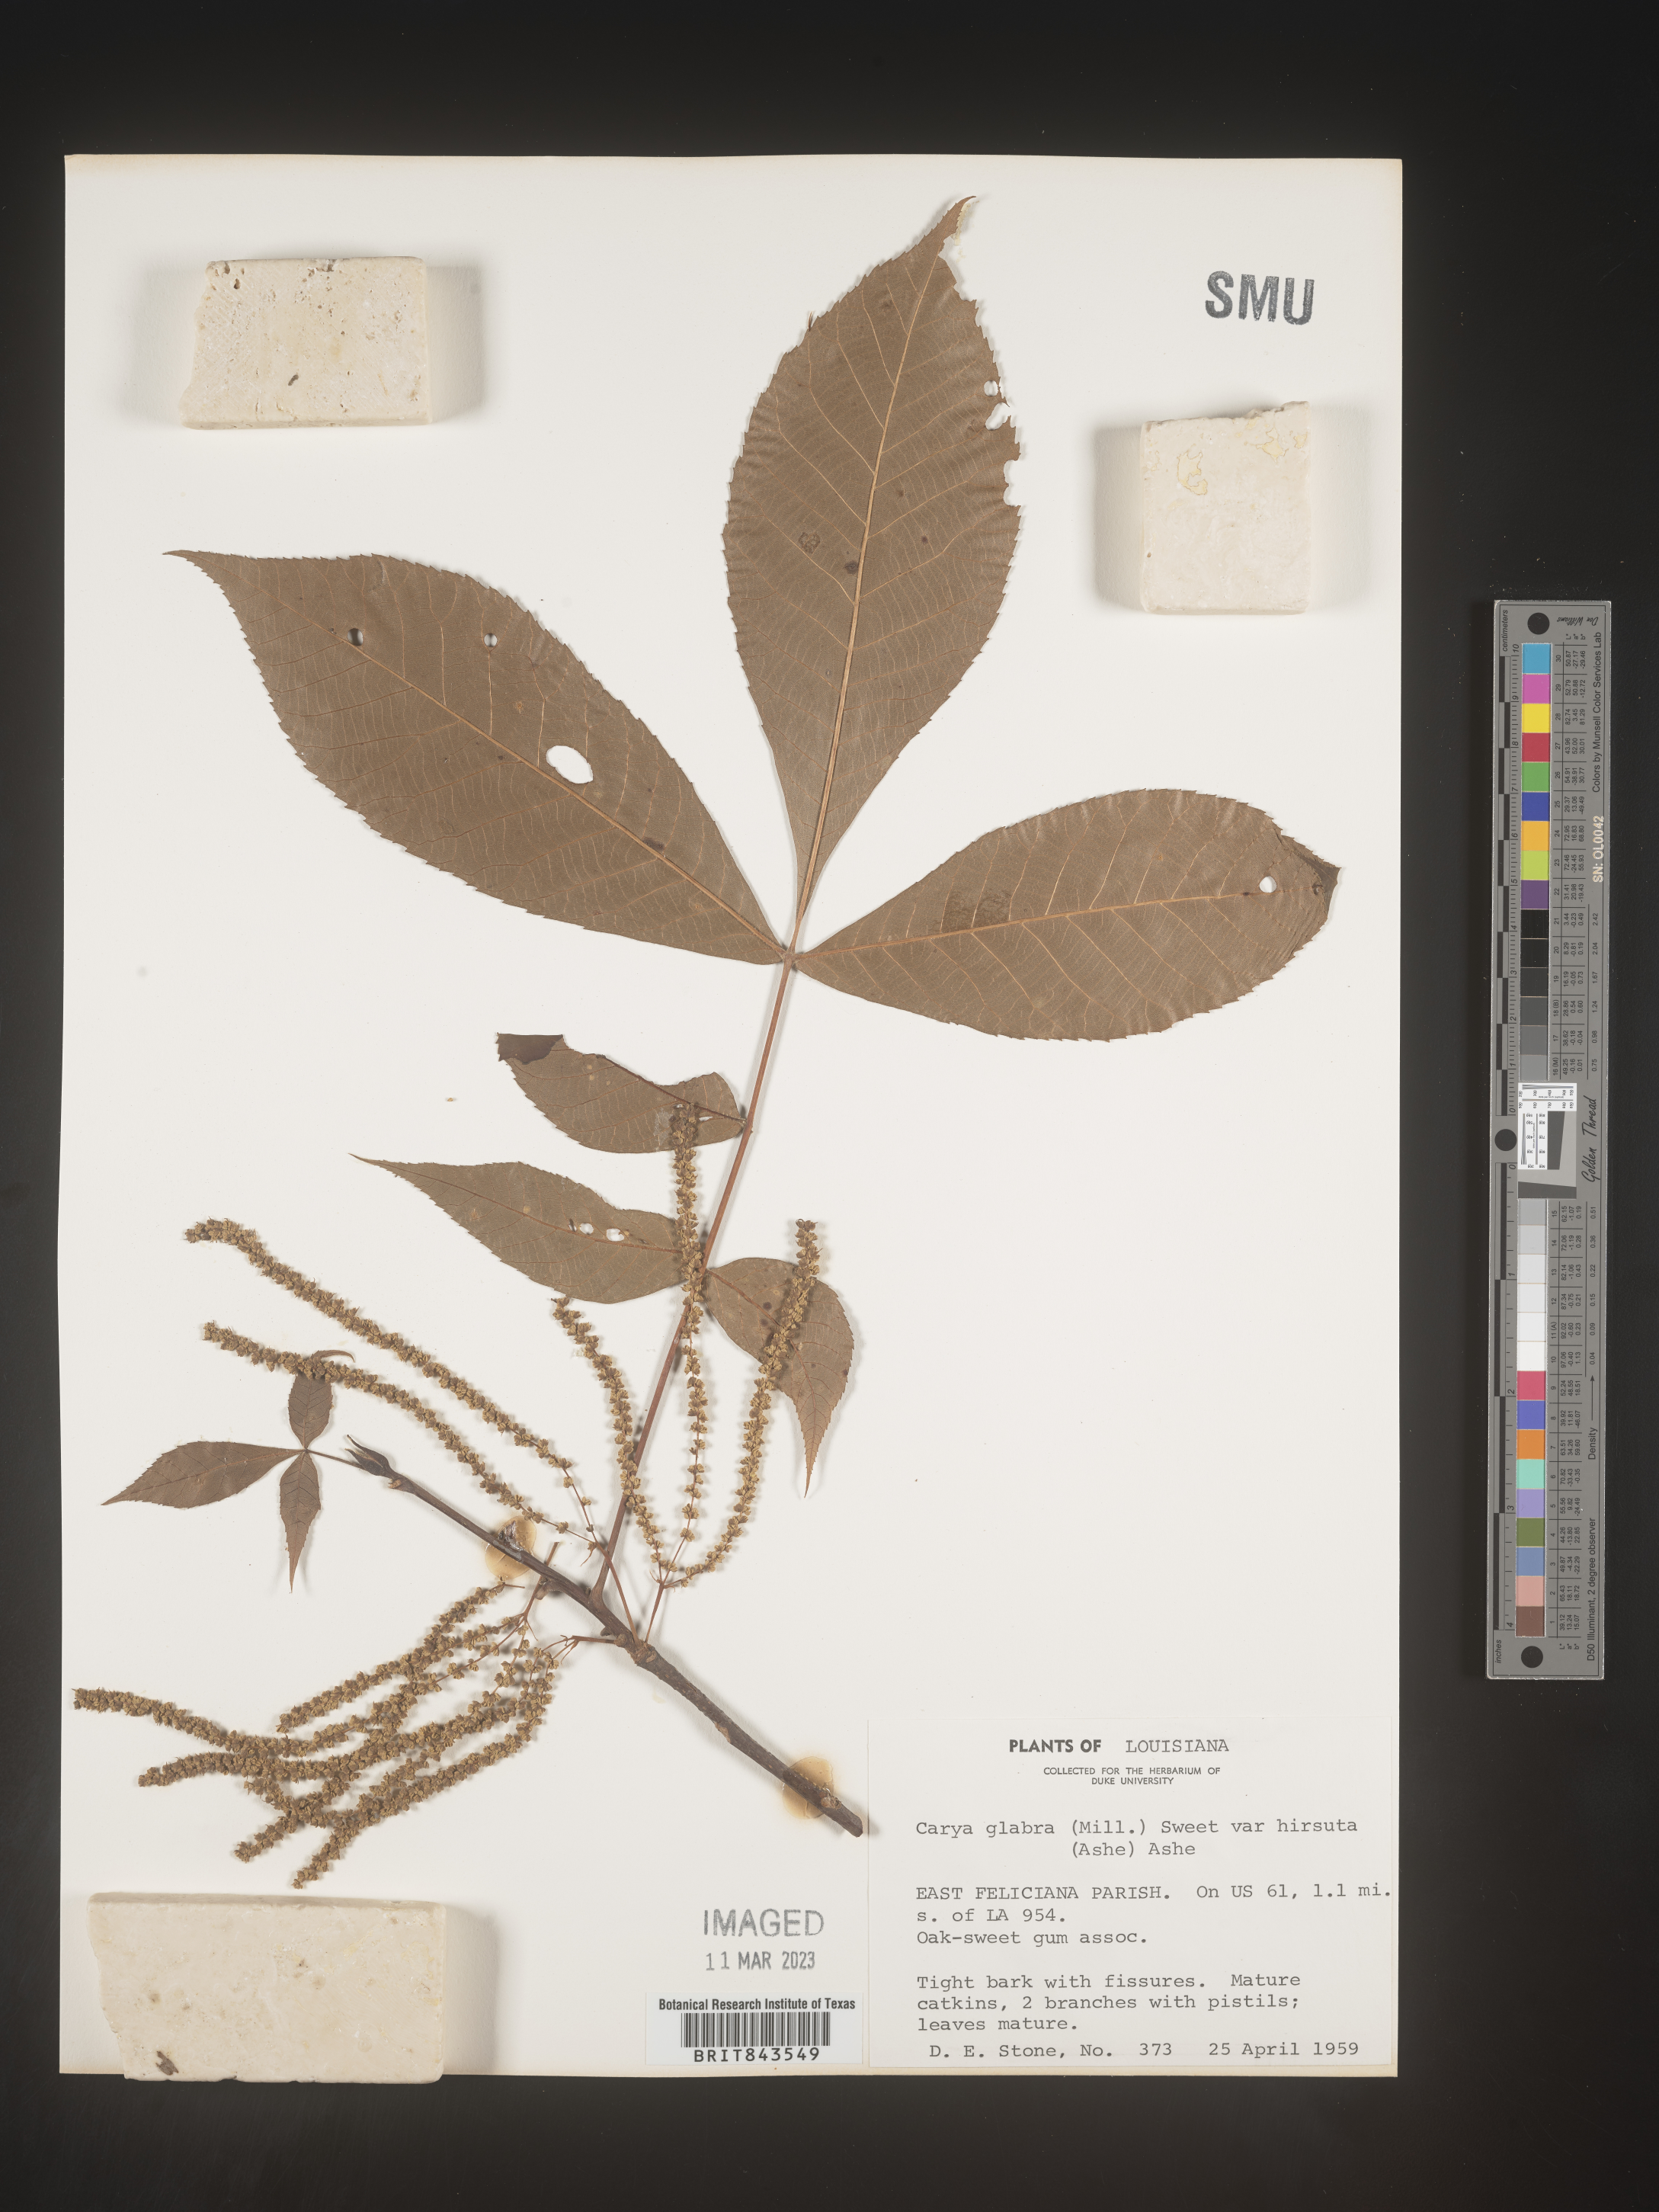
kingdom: Plantae
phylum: Tracheophyta
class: Magnoliopsida
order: Fagales
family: Juglandaceae
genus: Carya
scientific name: Carya glabra
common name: Pignut hickory
